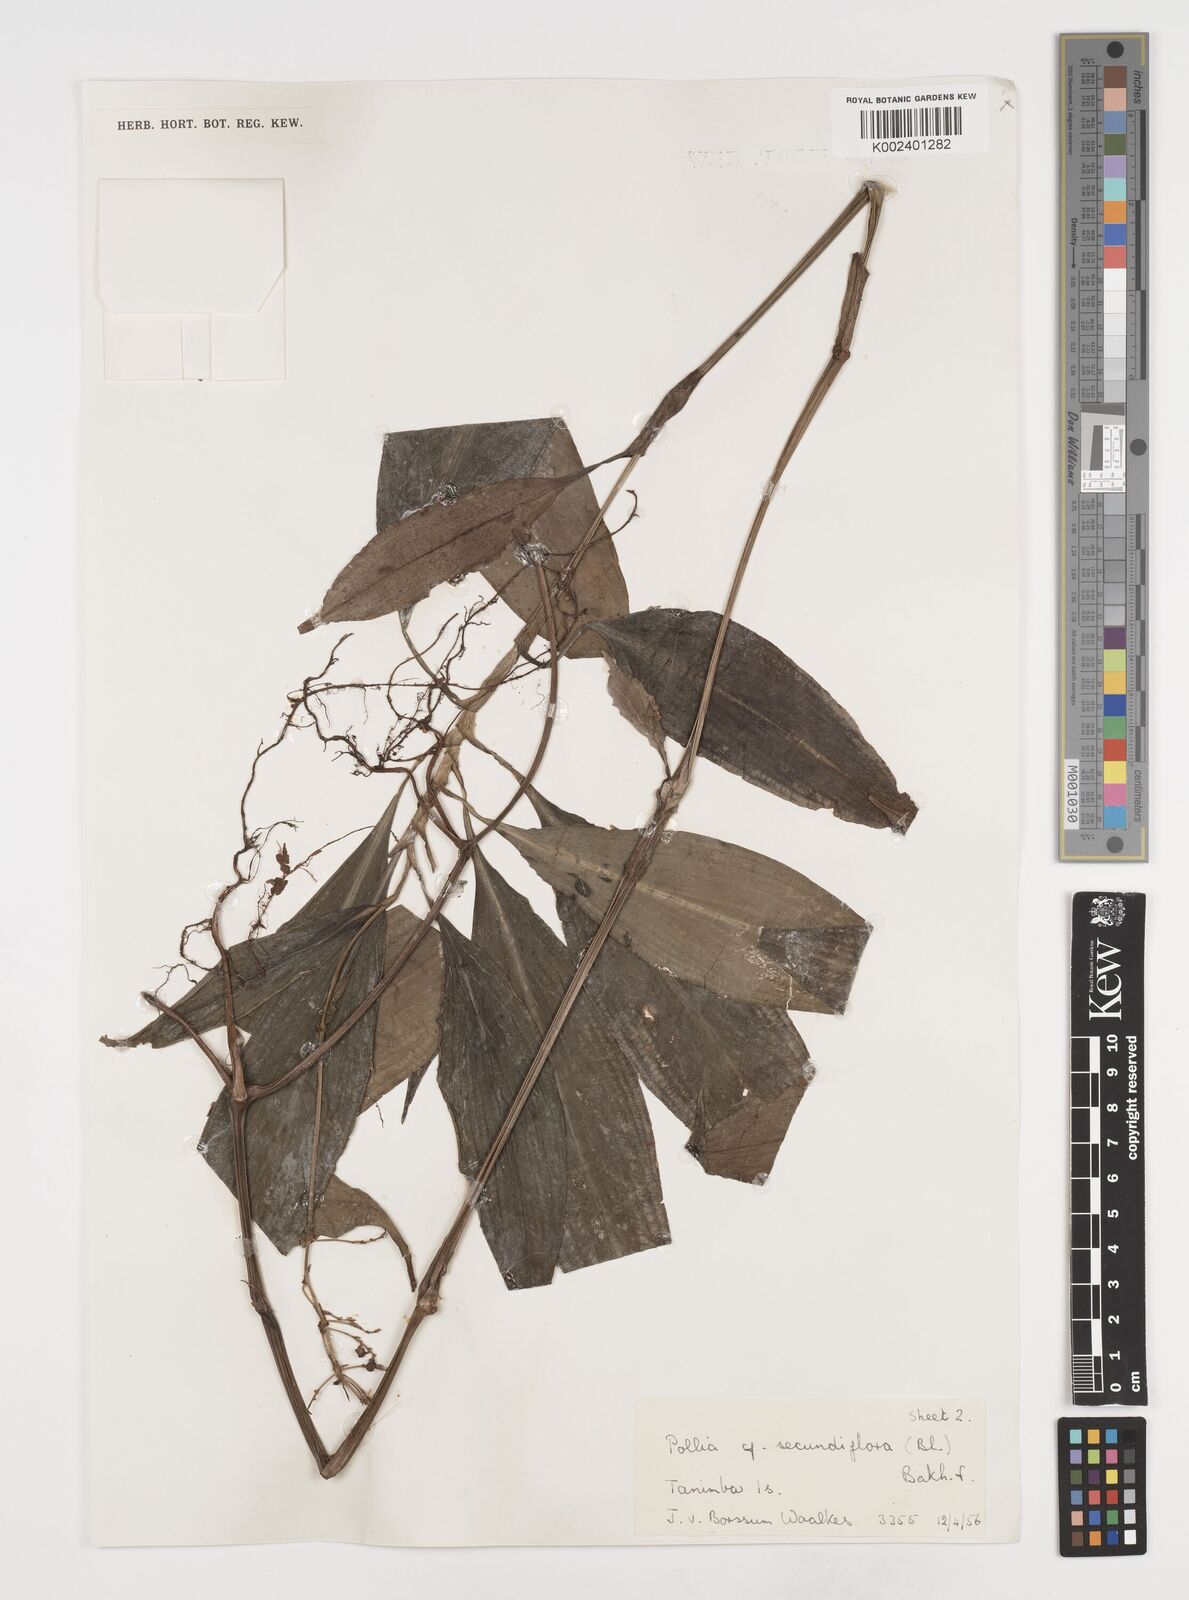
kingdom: Plantae
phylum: Tracheophyta
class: Liliopsida
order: Commelinales
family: Commelinaceae
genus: Pollia
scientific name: Pollia secundiflora
